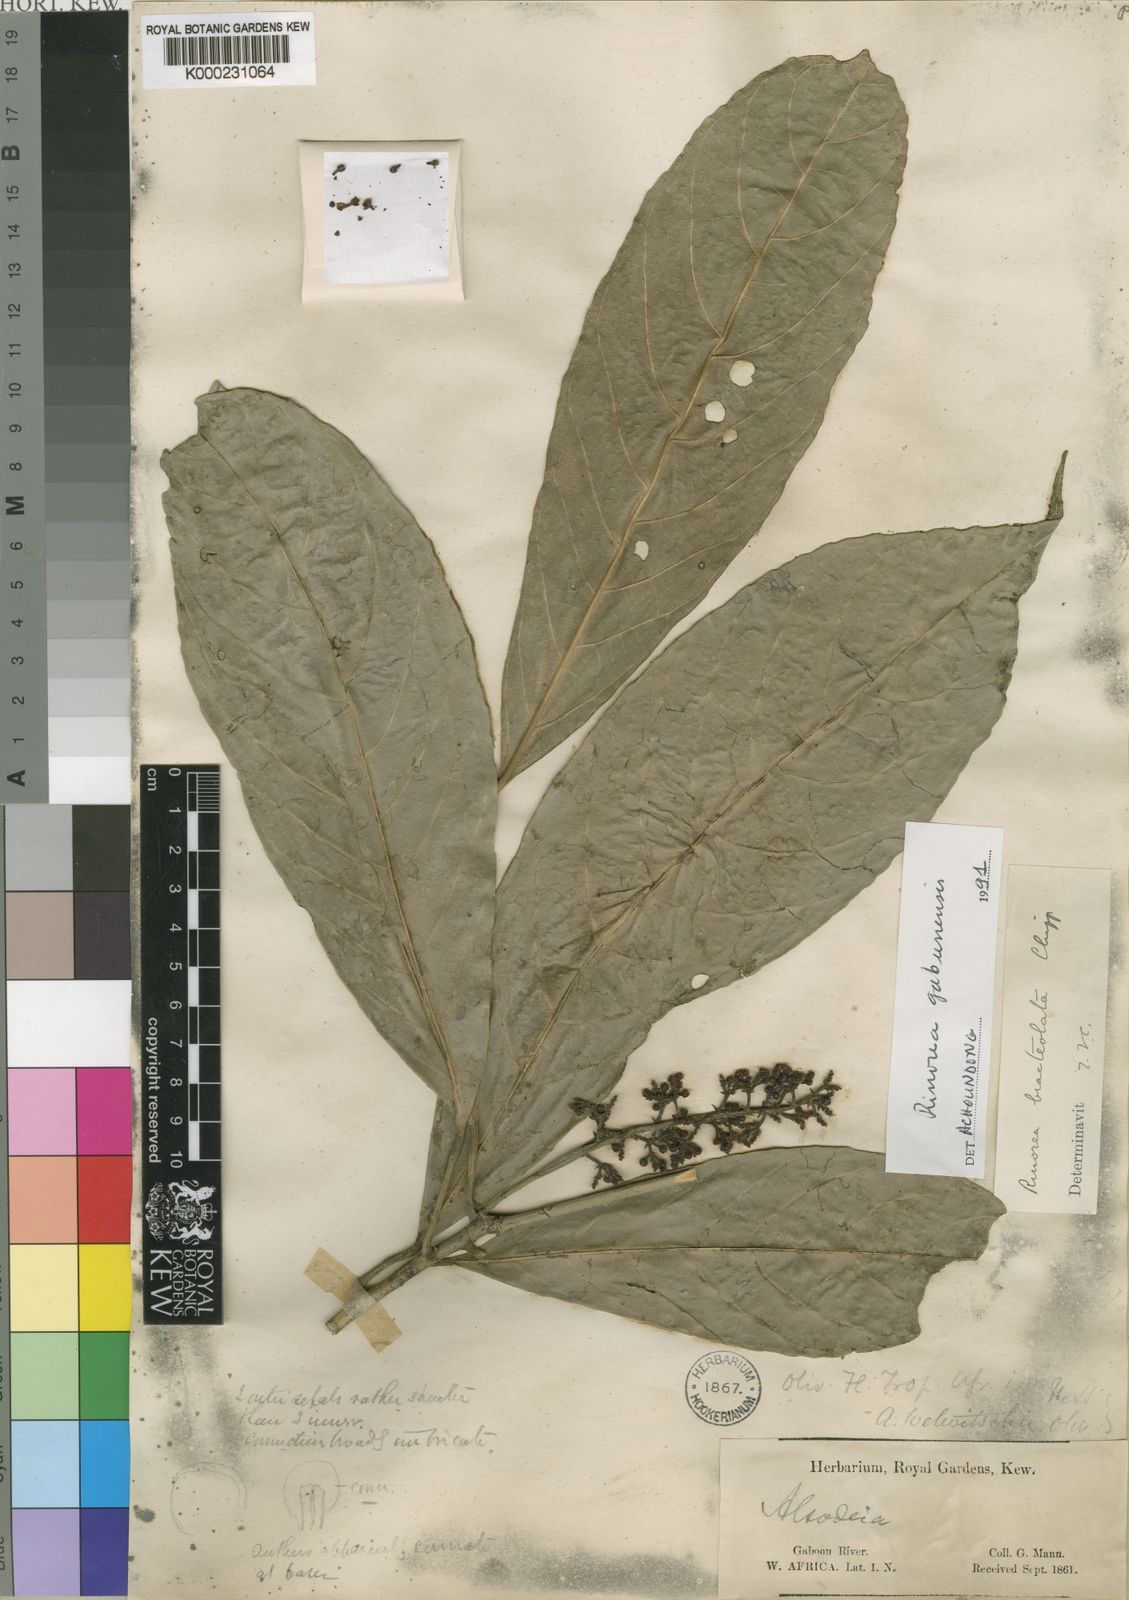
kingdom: Plantae
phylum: Tracheophyta
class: Magnoliopsida
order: Malpighiales
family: Violaceae
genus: Rinorea
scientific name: Rinorea gabunensis
